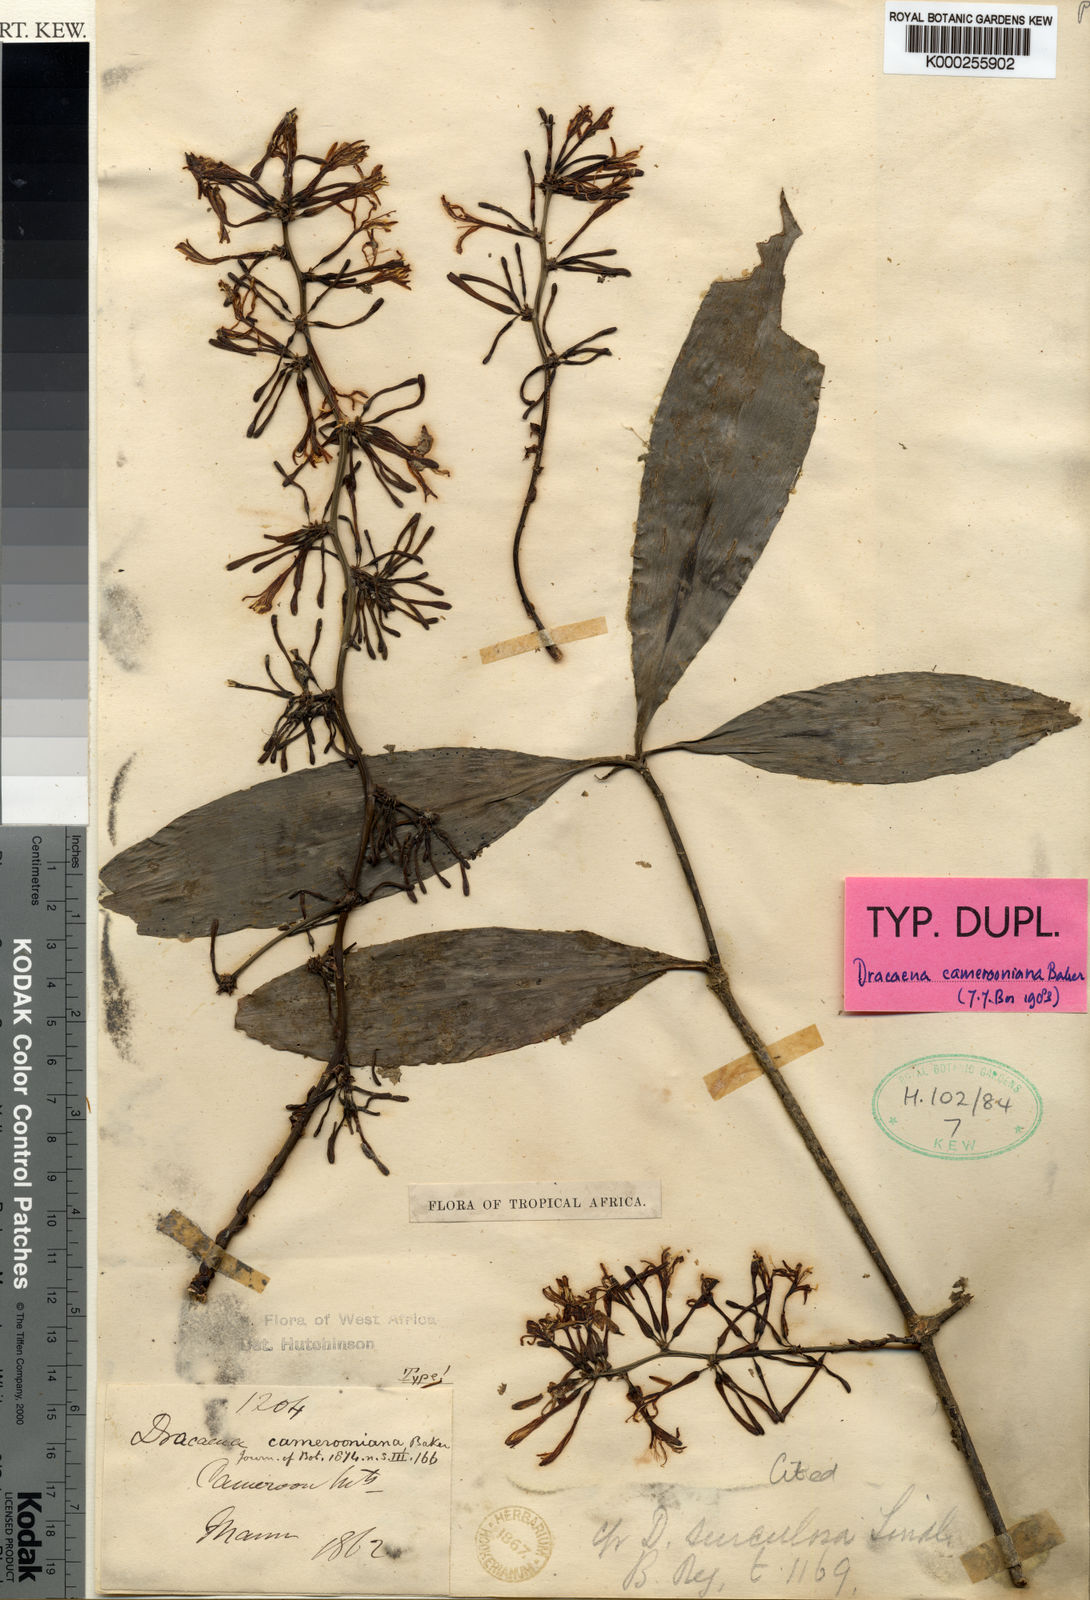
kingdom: Plantae
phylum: Tracheophyta
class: Liliopsida
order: Asparagales
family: Asparagaceae
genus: Dracaena
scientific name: Dracaena camerooniana
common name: Dragon tree
